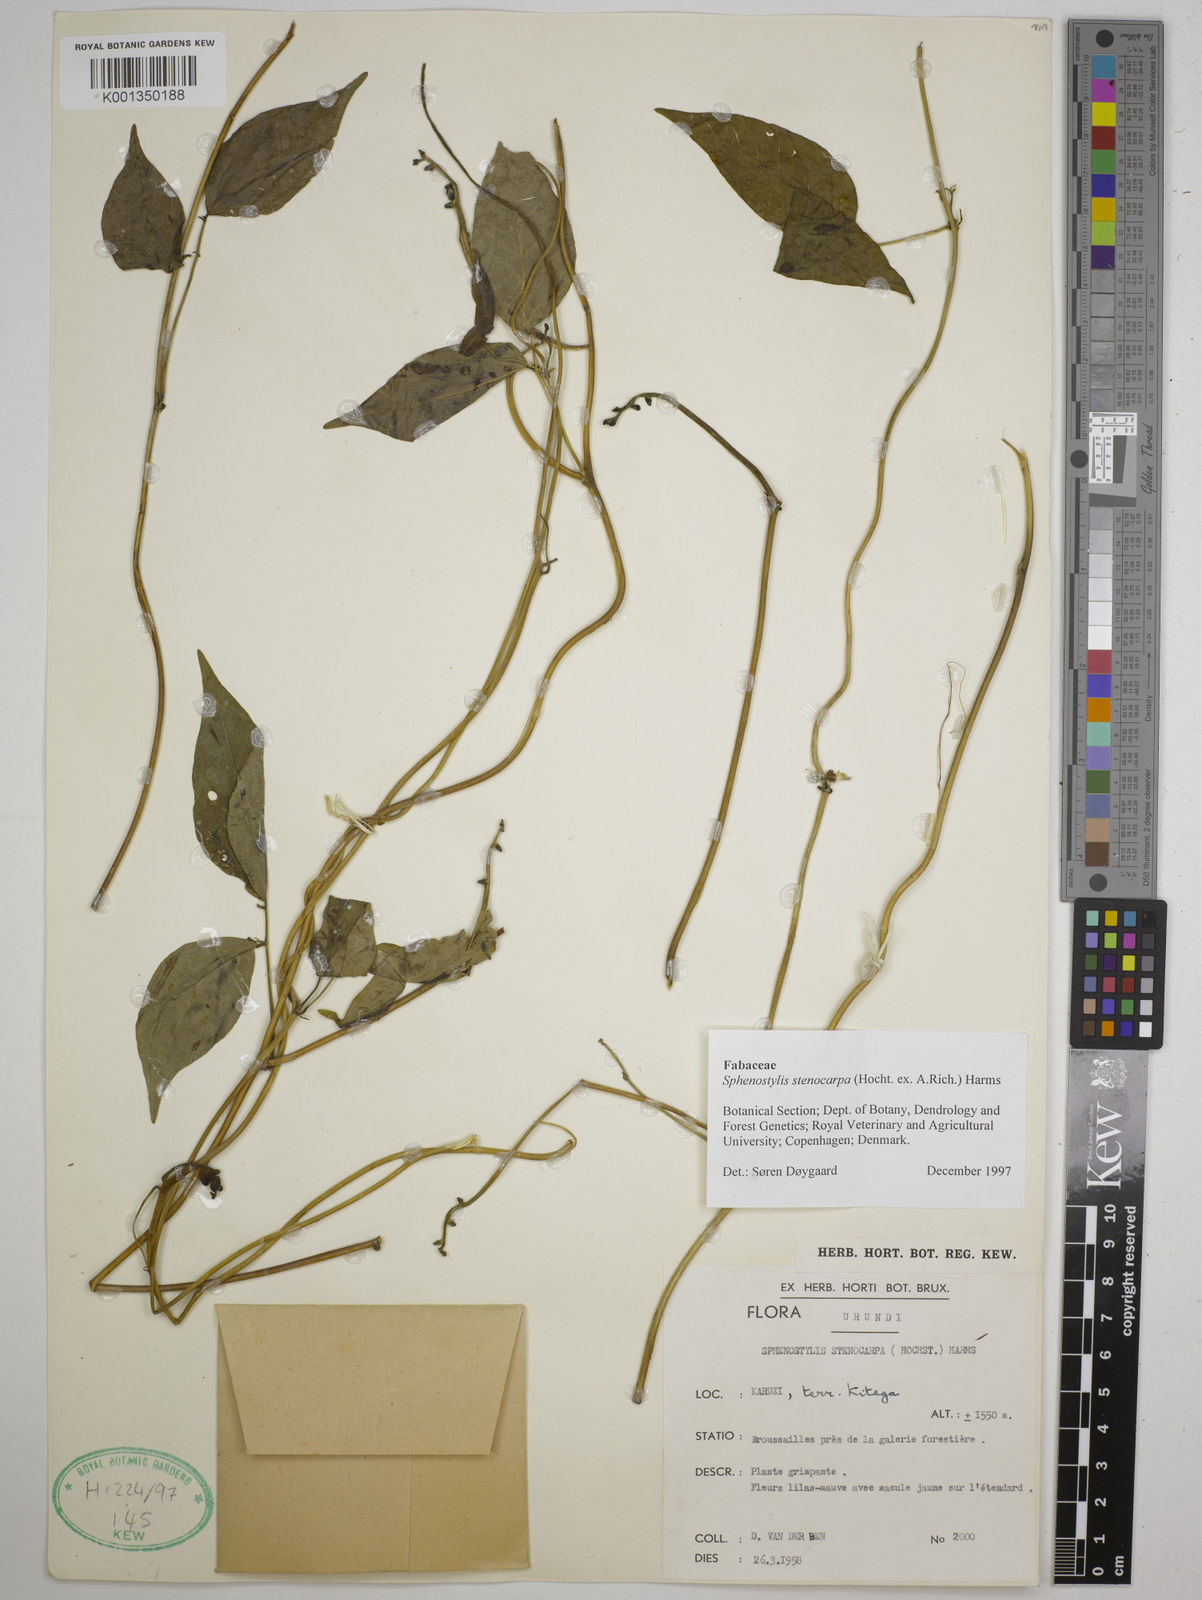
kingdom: Plantae
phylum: Tracheophyta
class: Magnoliopsida
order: Fabales
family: Fabaceae
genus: Sphenostylis
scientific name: Sphenostylis stenocarpa
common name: Yam-pea
